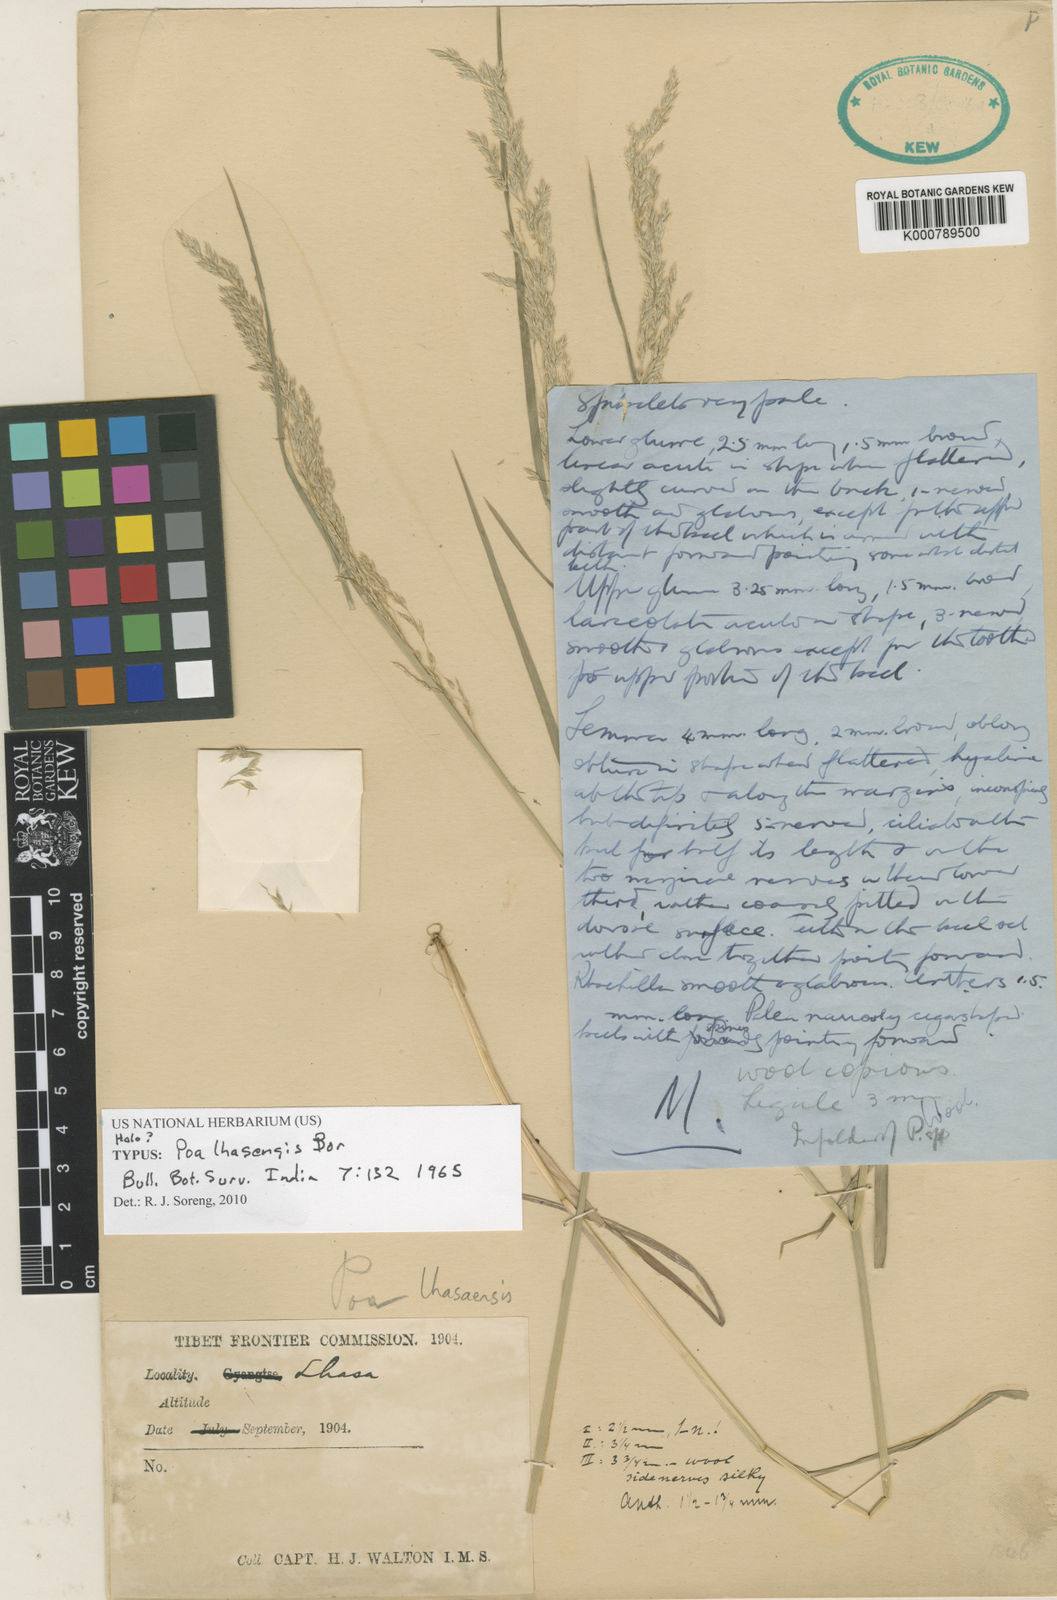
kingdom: Plantae
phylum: Tracheophyta
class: Liliopsida
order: Poales
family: Poaceae
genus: Poa
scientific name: Poa lhasaensis
